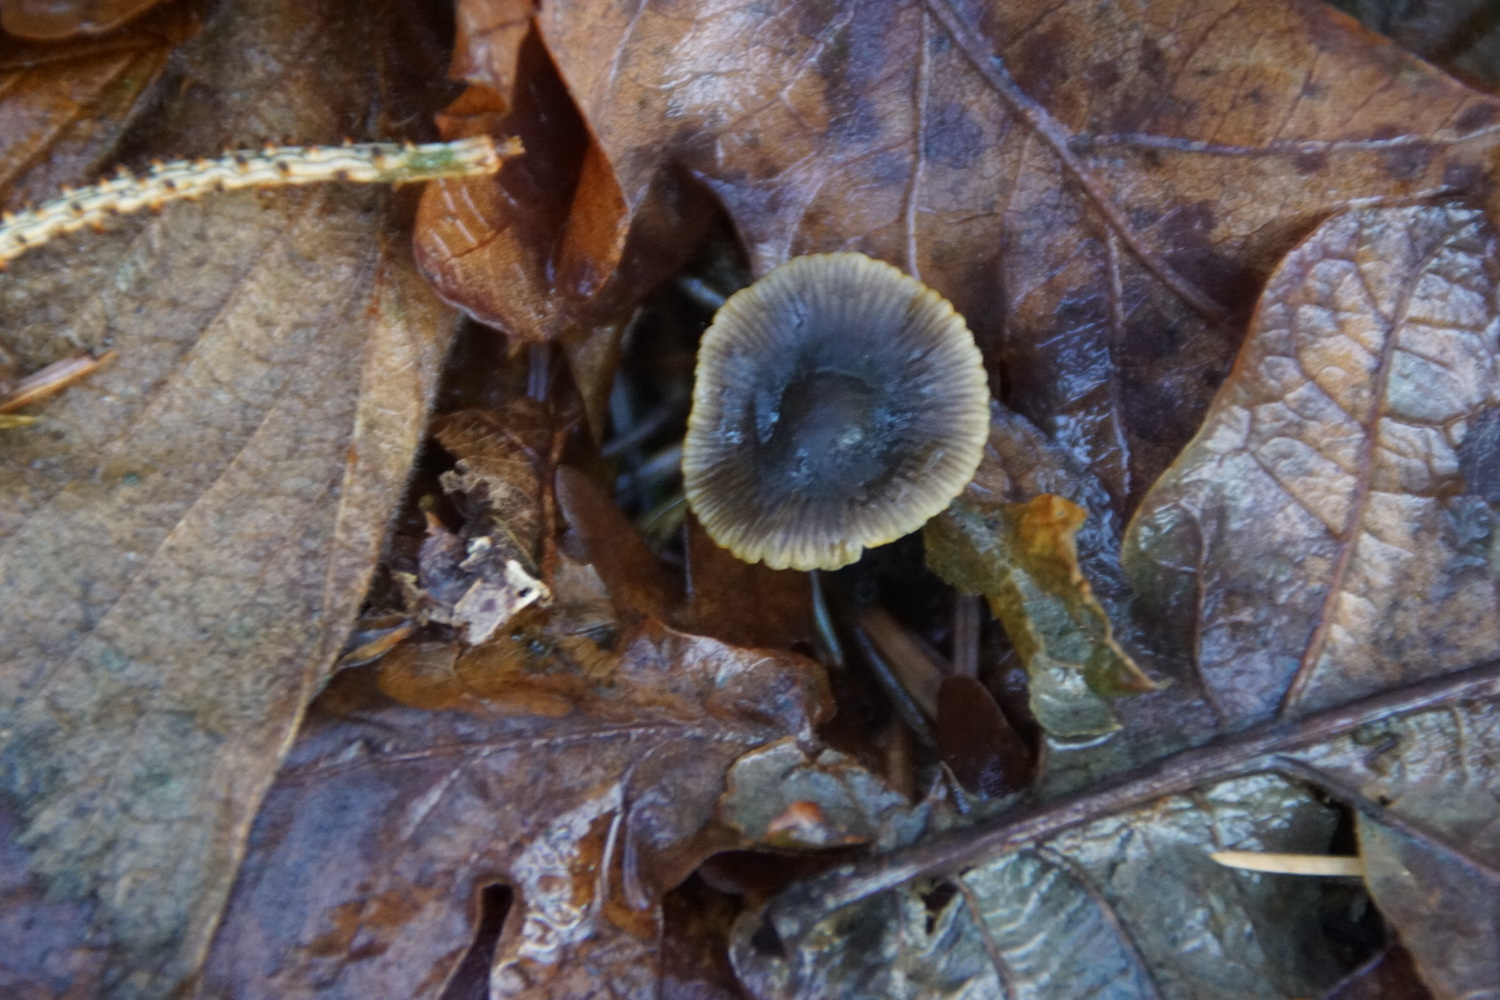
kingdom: Fungi
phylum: Basidiomycota
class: Agaricomycetes
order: Agaricales
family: Mycenaceae
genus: Mycena
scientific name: Mycena aurantiomarginata
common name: orangeægget huesvamp
